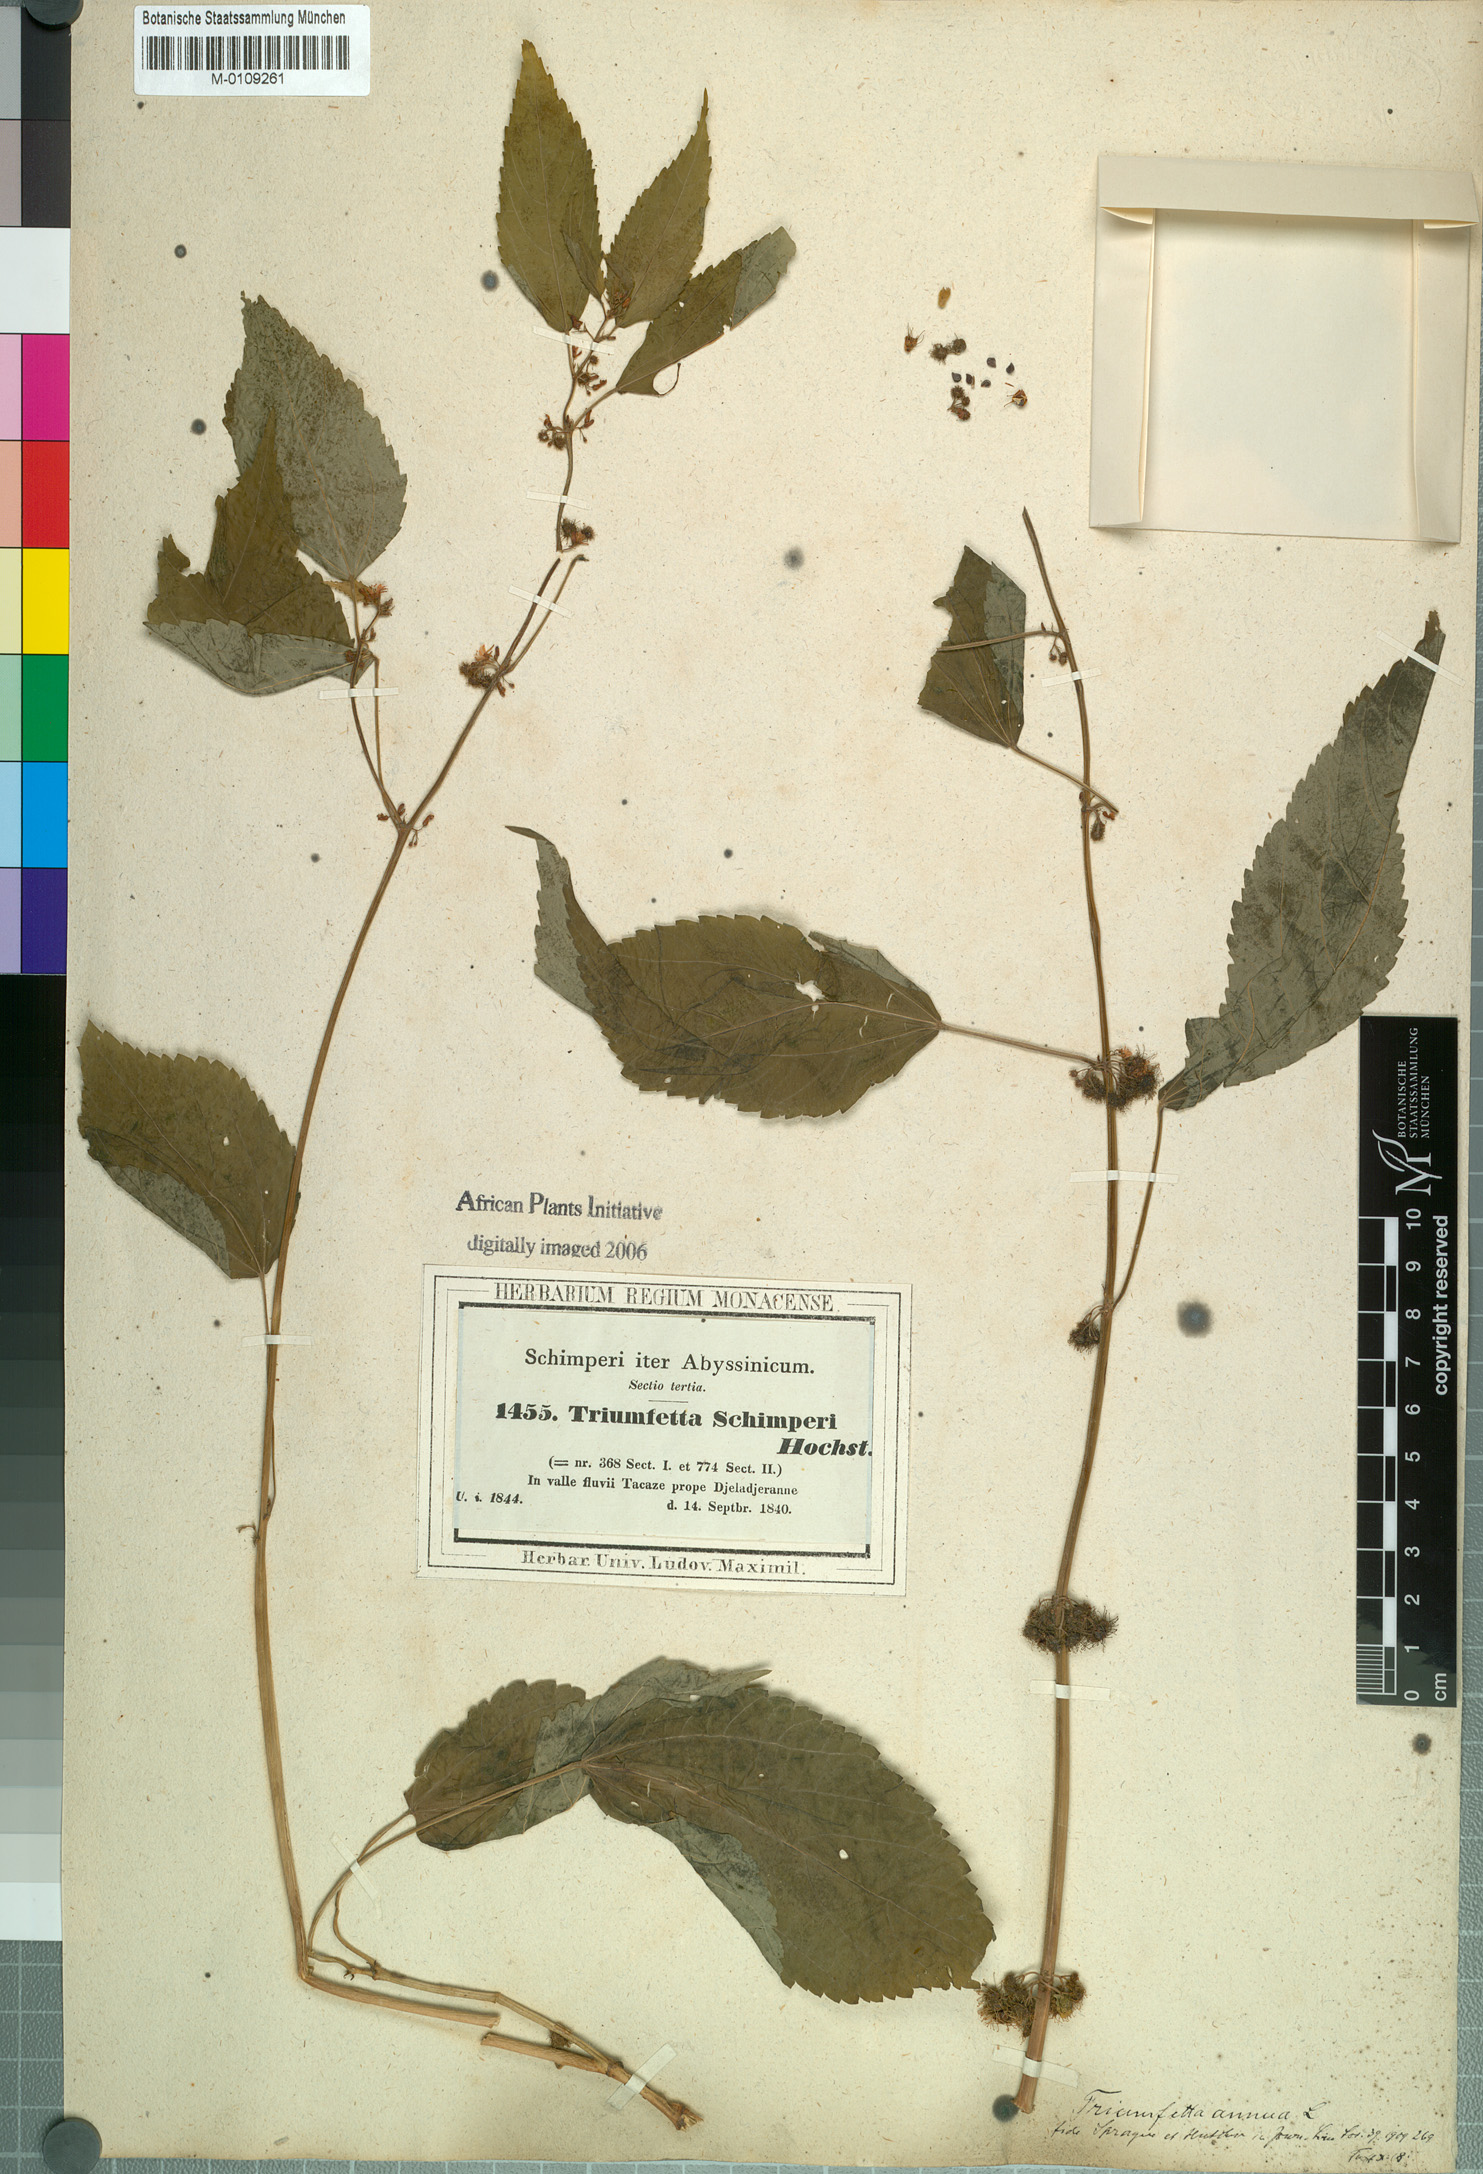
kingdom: Plantae
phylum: Tracheophyta
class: Magnoliopsida
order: Malvales
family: Malvaceae
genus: Triumfetta
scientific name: Triumfetta annua
